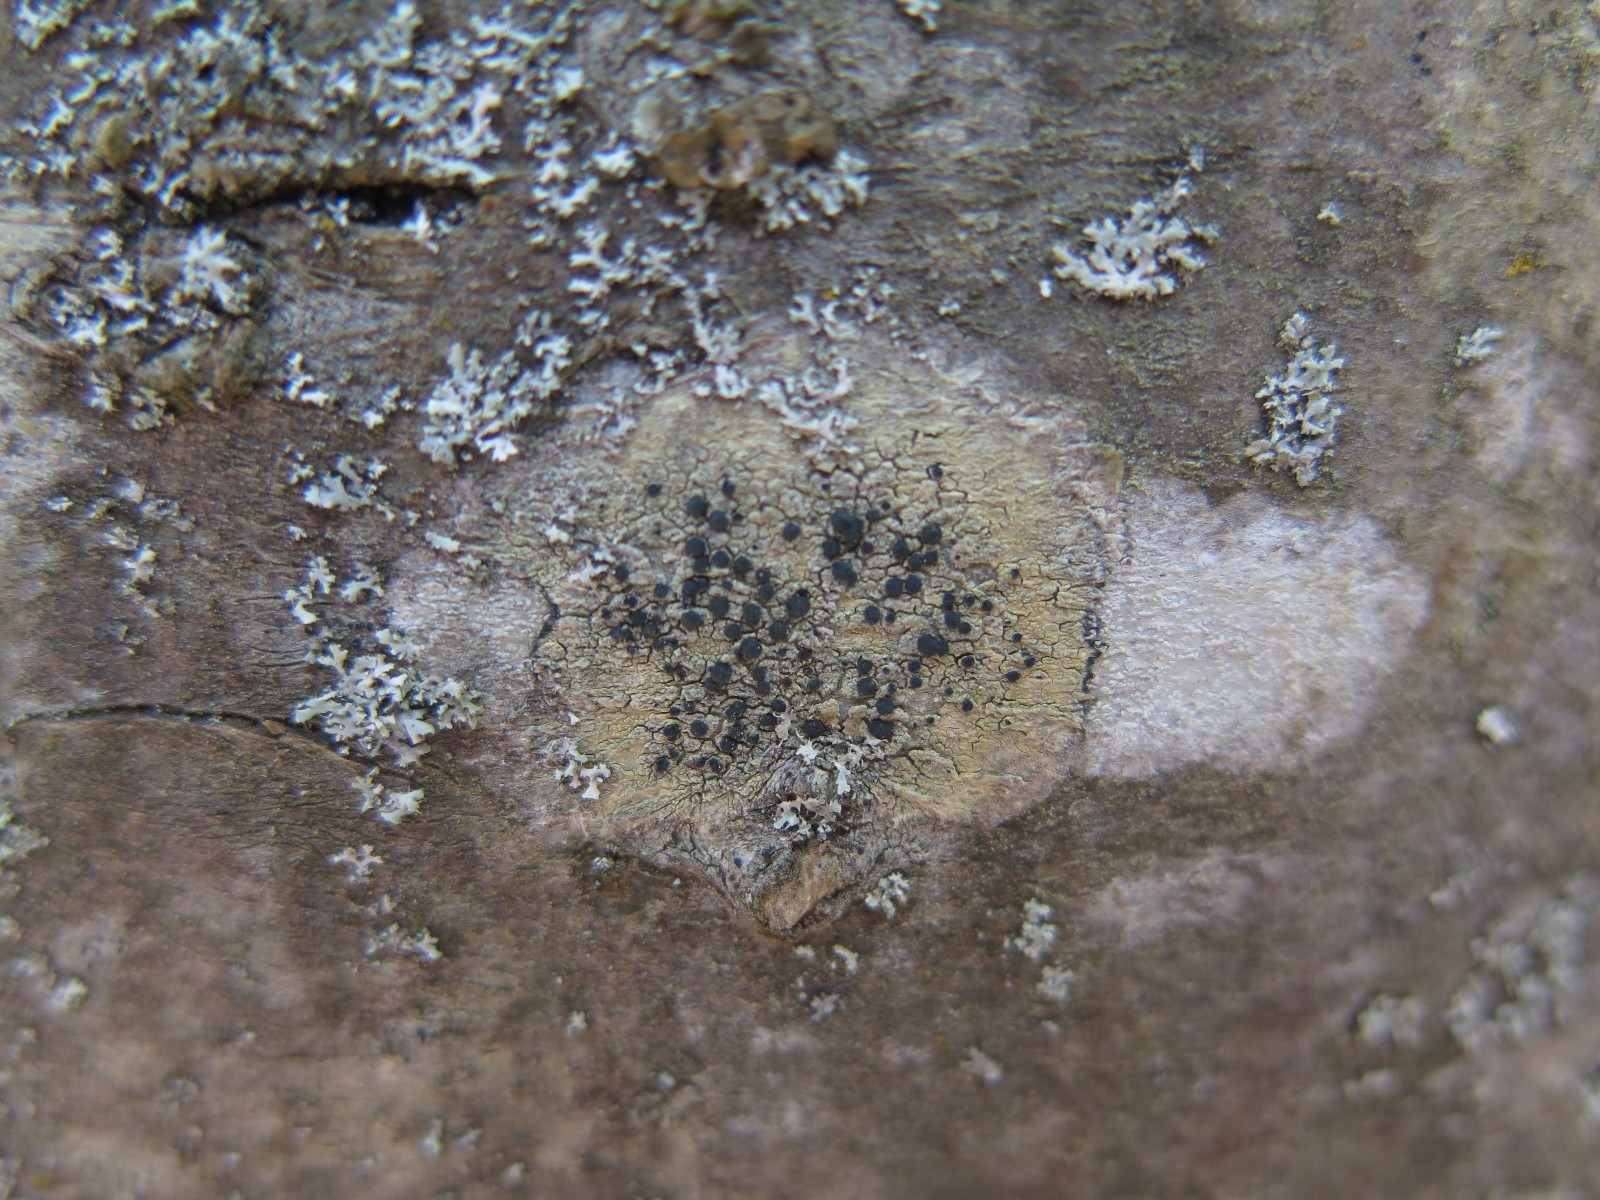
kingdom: Fungi
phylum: Ascomycota
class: Lecanoromycetes
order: Lecanorales
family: Lecanoraceae
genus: Lecidella
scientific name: Lecidella elaeochroma
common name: grågrøn skivelav
